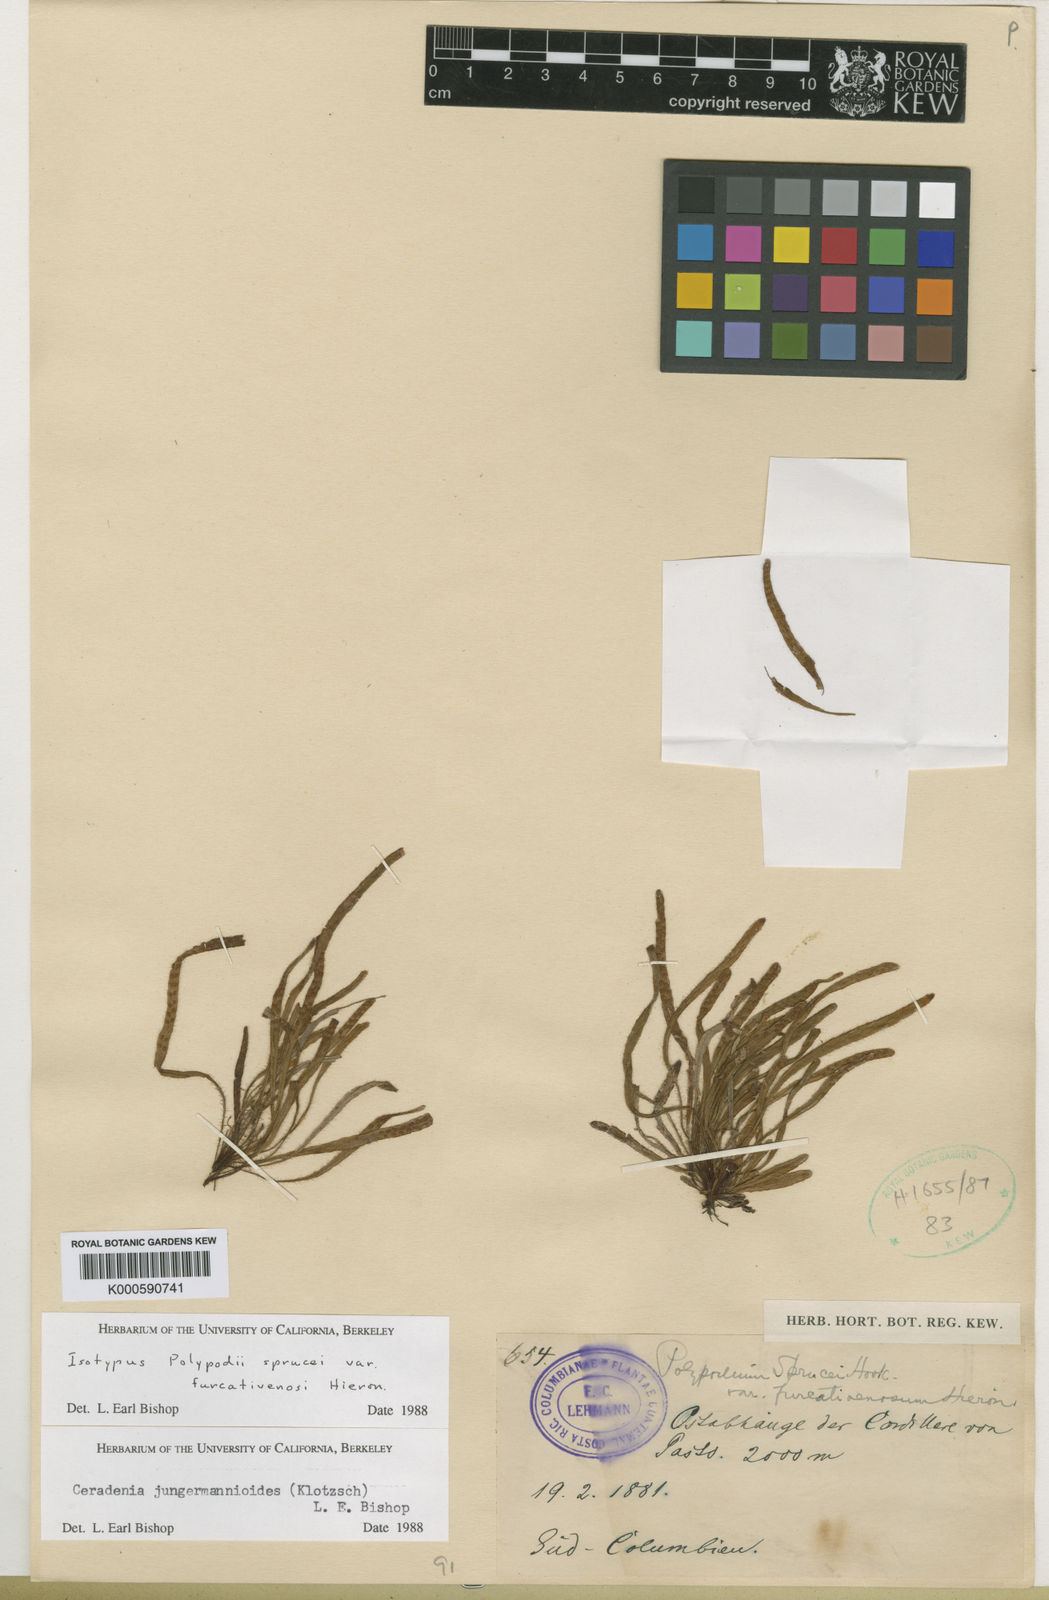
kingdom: Plantae
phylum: Tracheophyta
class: Polypodiopsida
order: Polypodiales
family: Polypodiaceae
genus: Ceradenia
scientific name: Ceradenia
